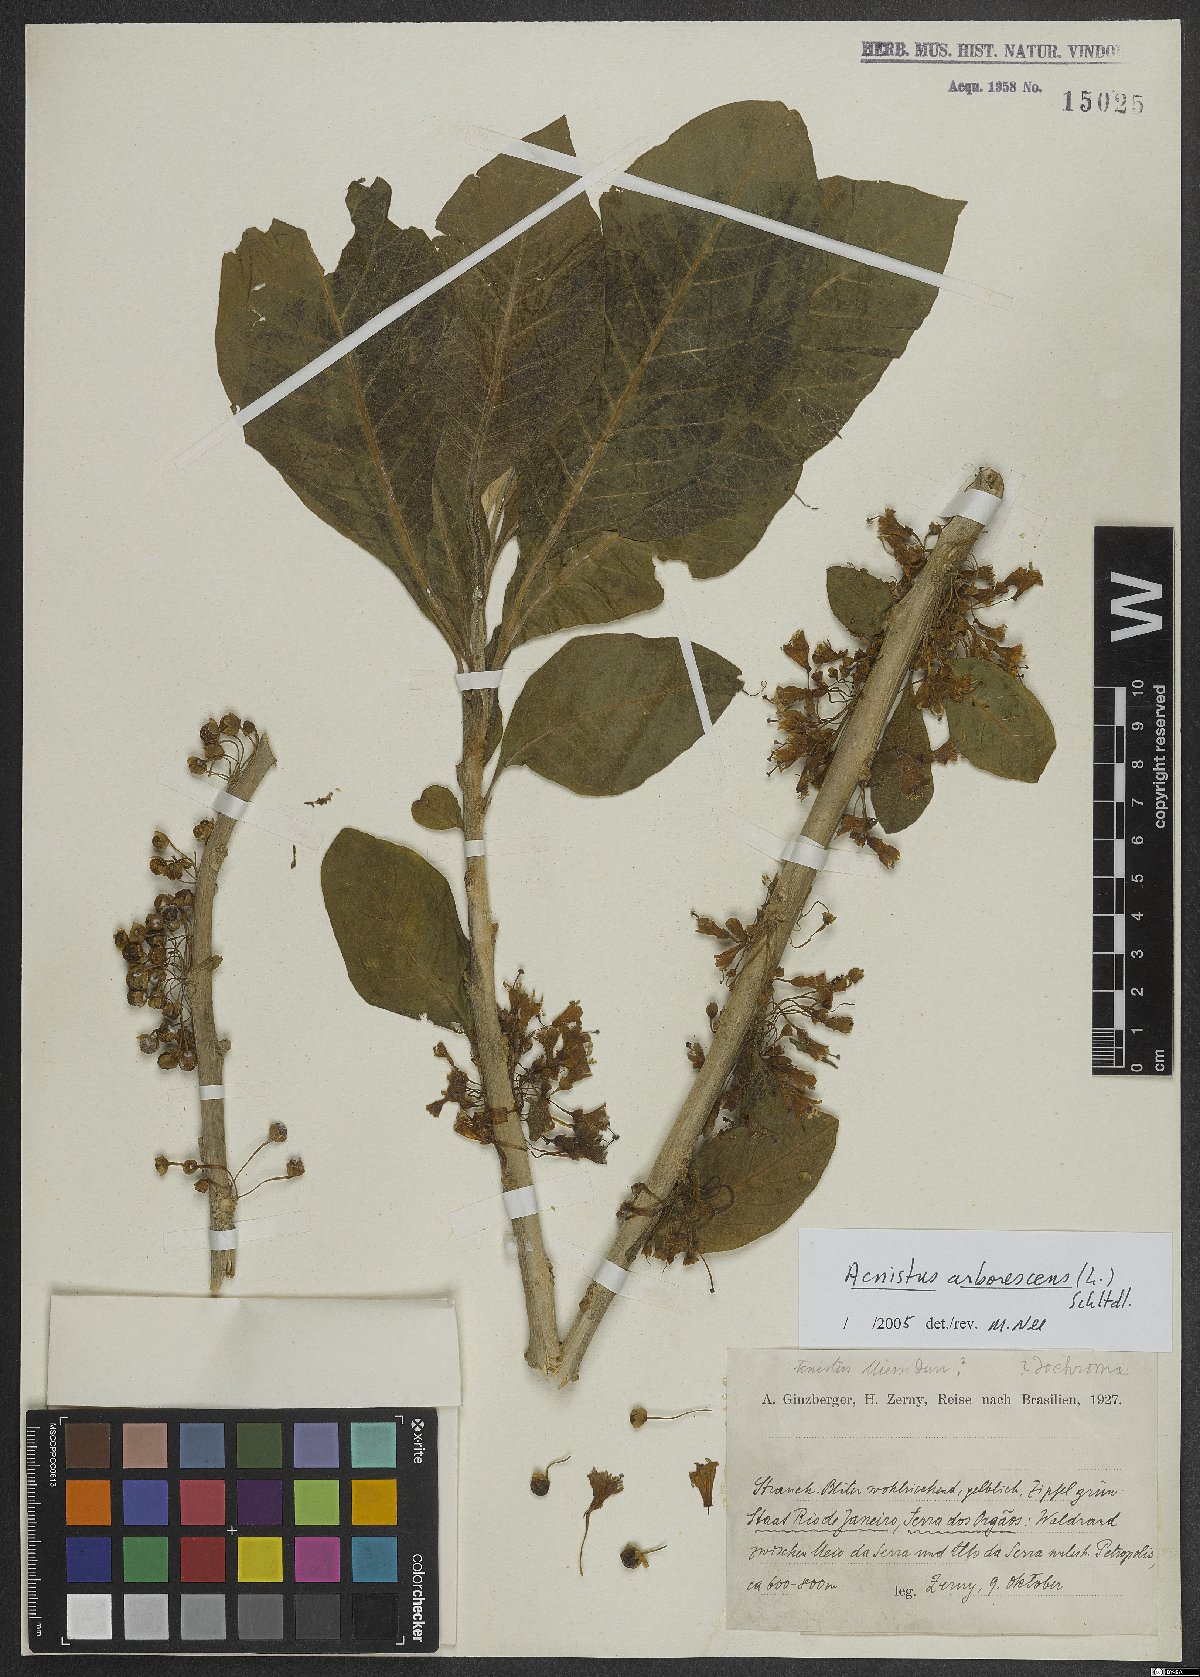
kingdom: Plantae
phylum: Tracheophyta
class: Magnoliopsida
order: Solanales
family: Solanaceae
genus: Iochroma
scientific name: Iochroma arborescens
